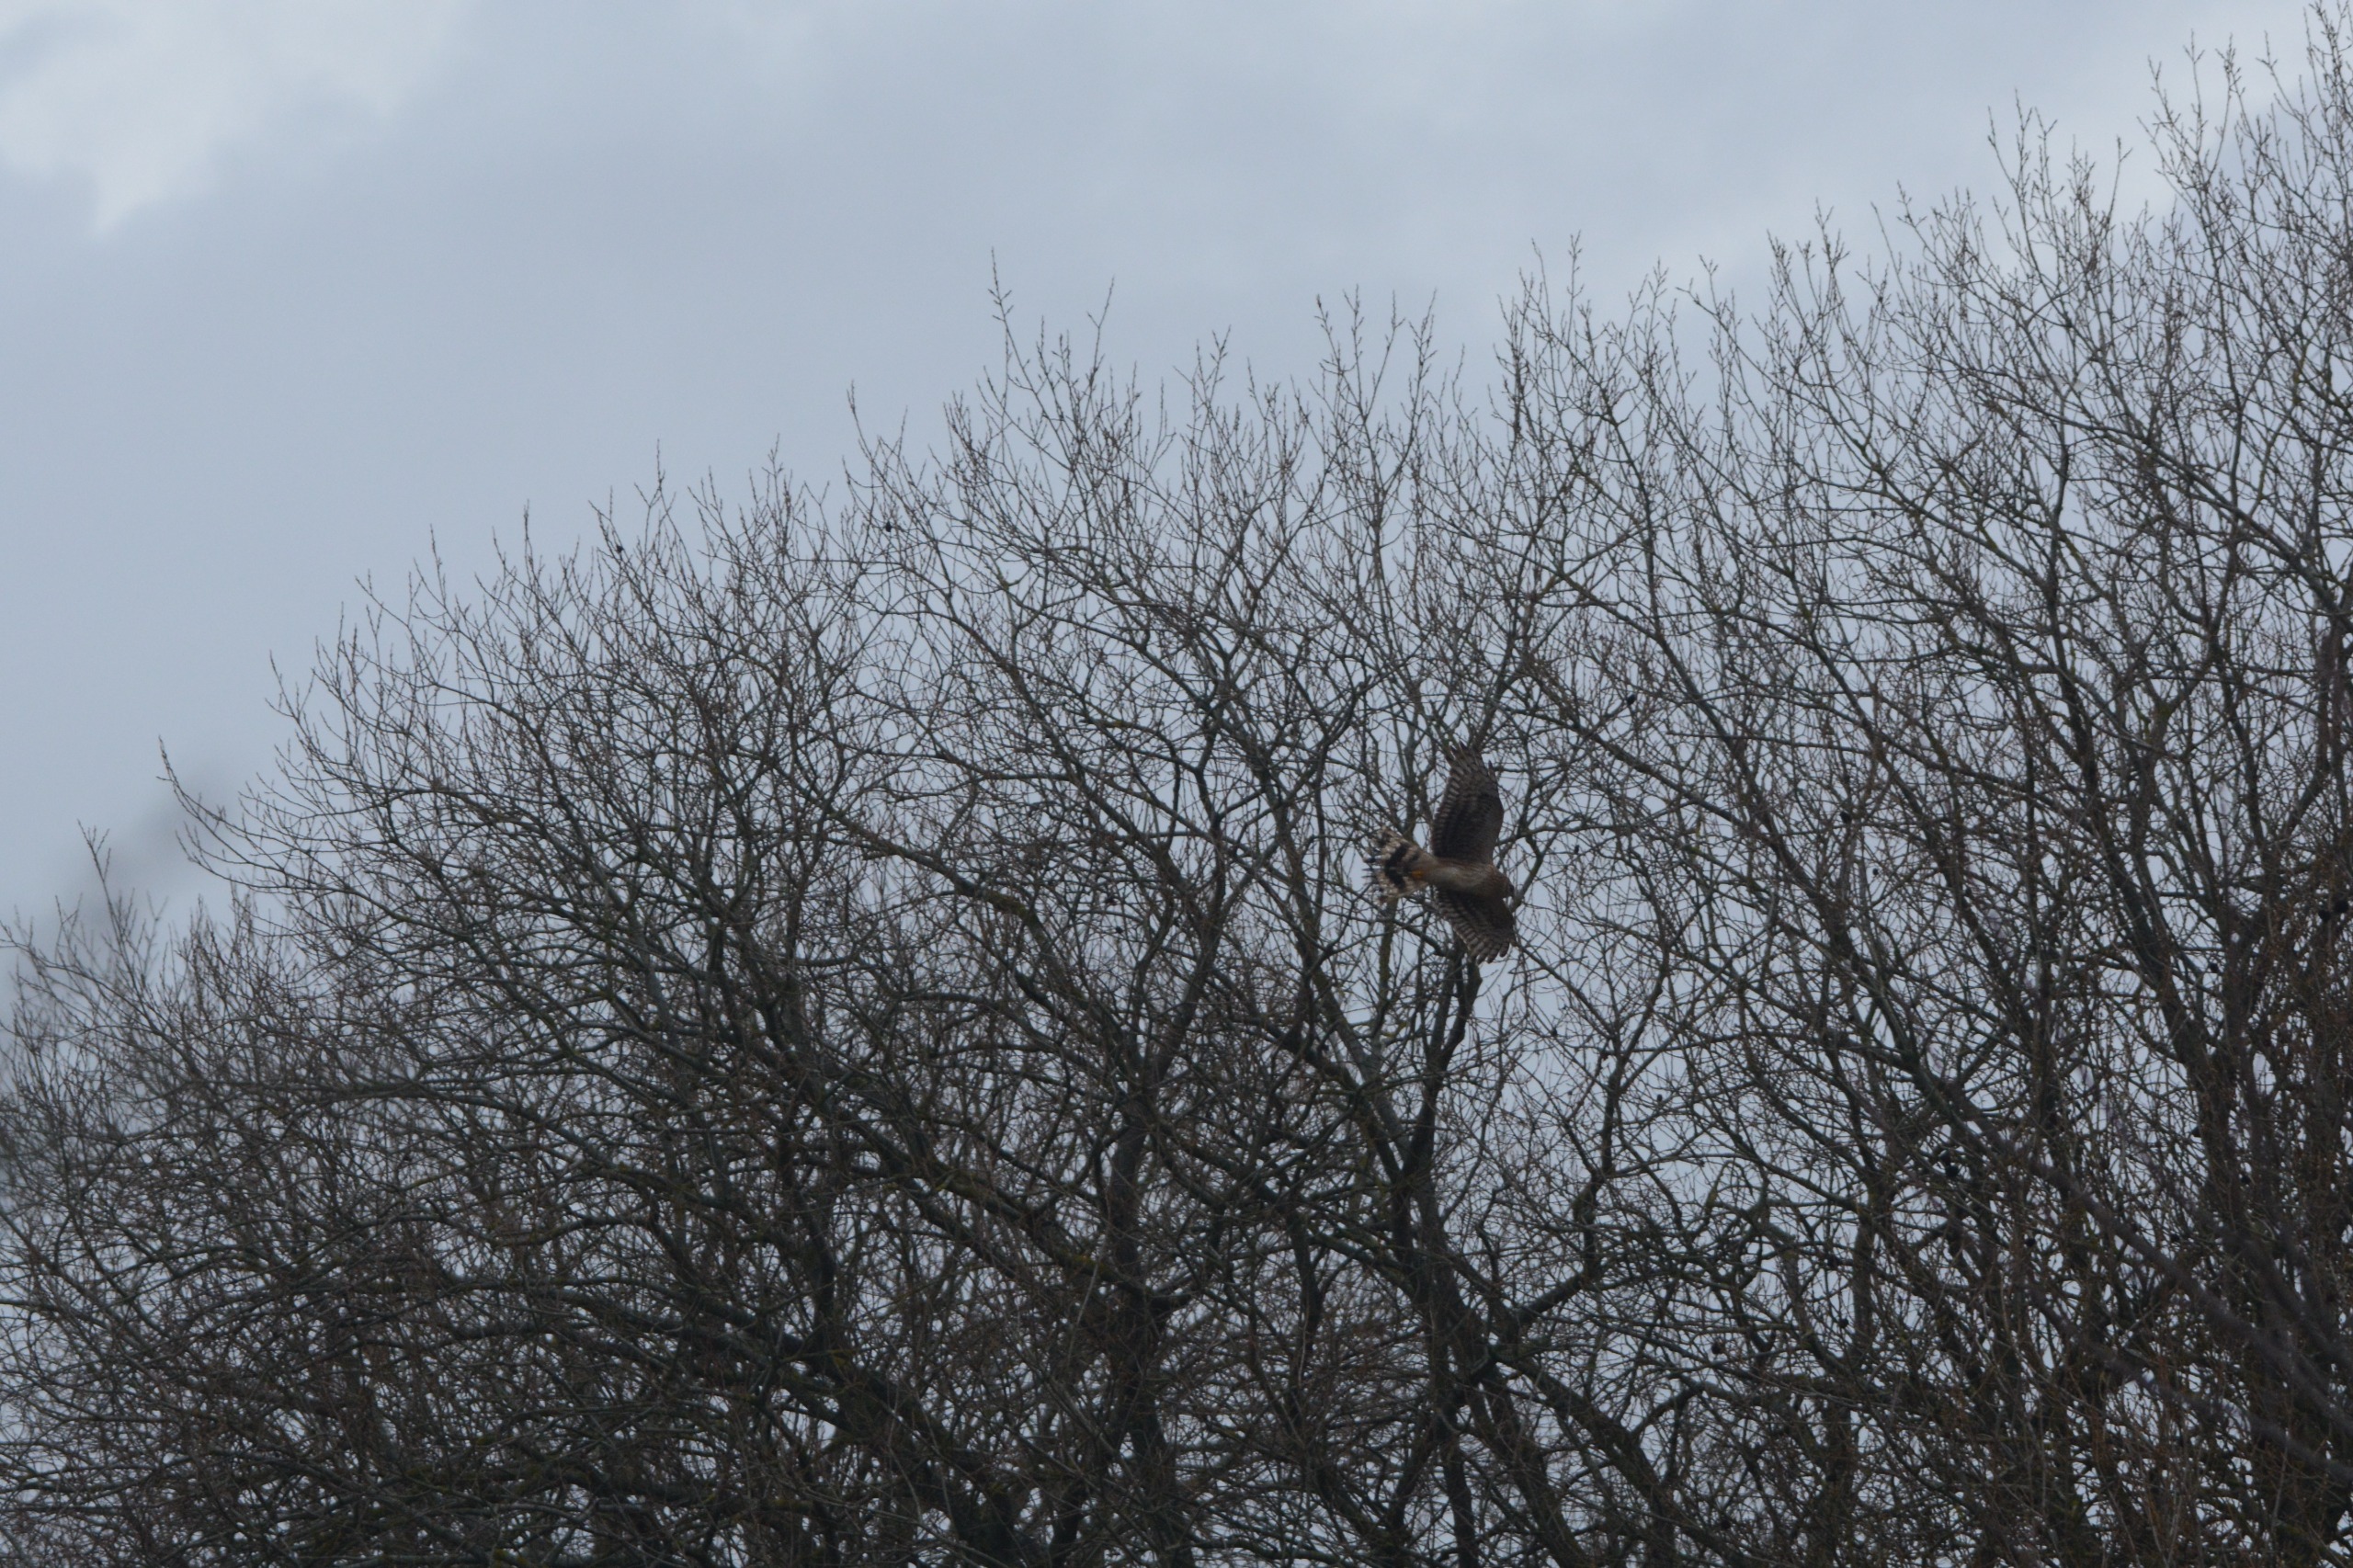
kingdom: Animalia
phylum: Chordata
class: Aves
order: Accipitriformes
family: Accipitridae
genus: Circus
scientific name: Circus cyaneus
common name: Blå kærhøg
